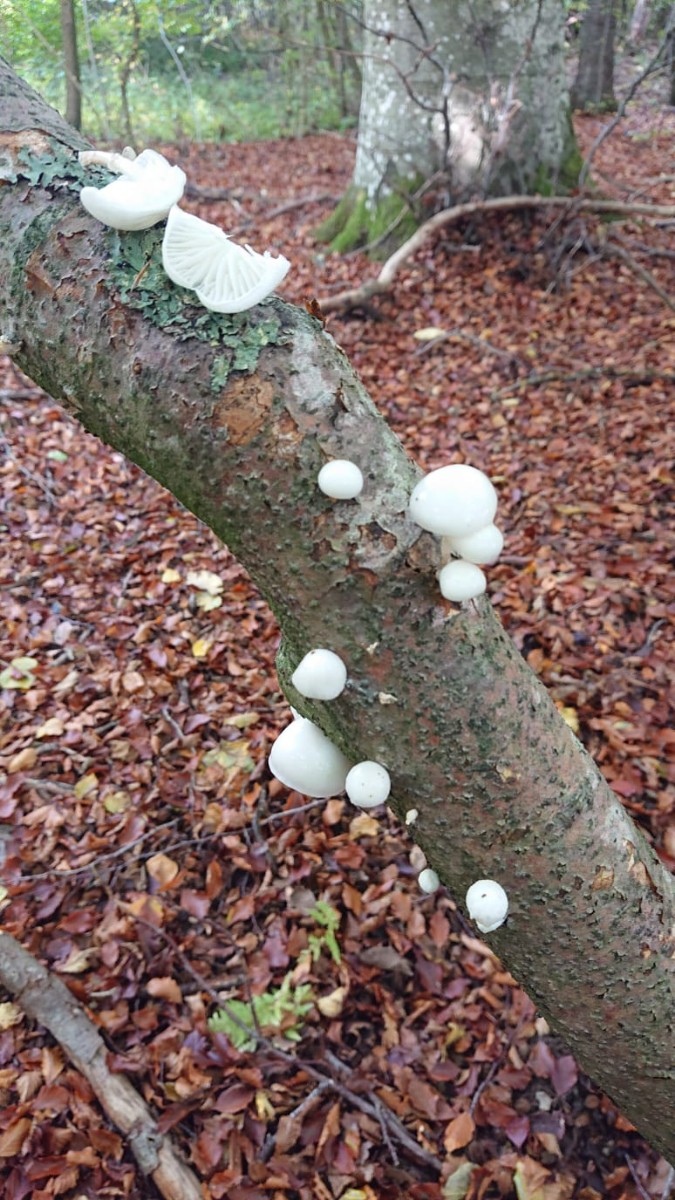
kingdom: Fungi
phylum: Basidiomycota
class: Agaricomycetes
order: Agaricales
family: Physalacriaceae
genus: Mucidula
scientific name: Mucidula mucida
